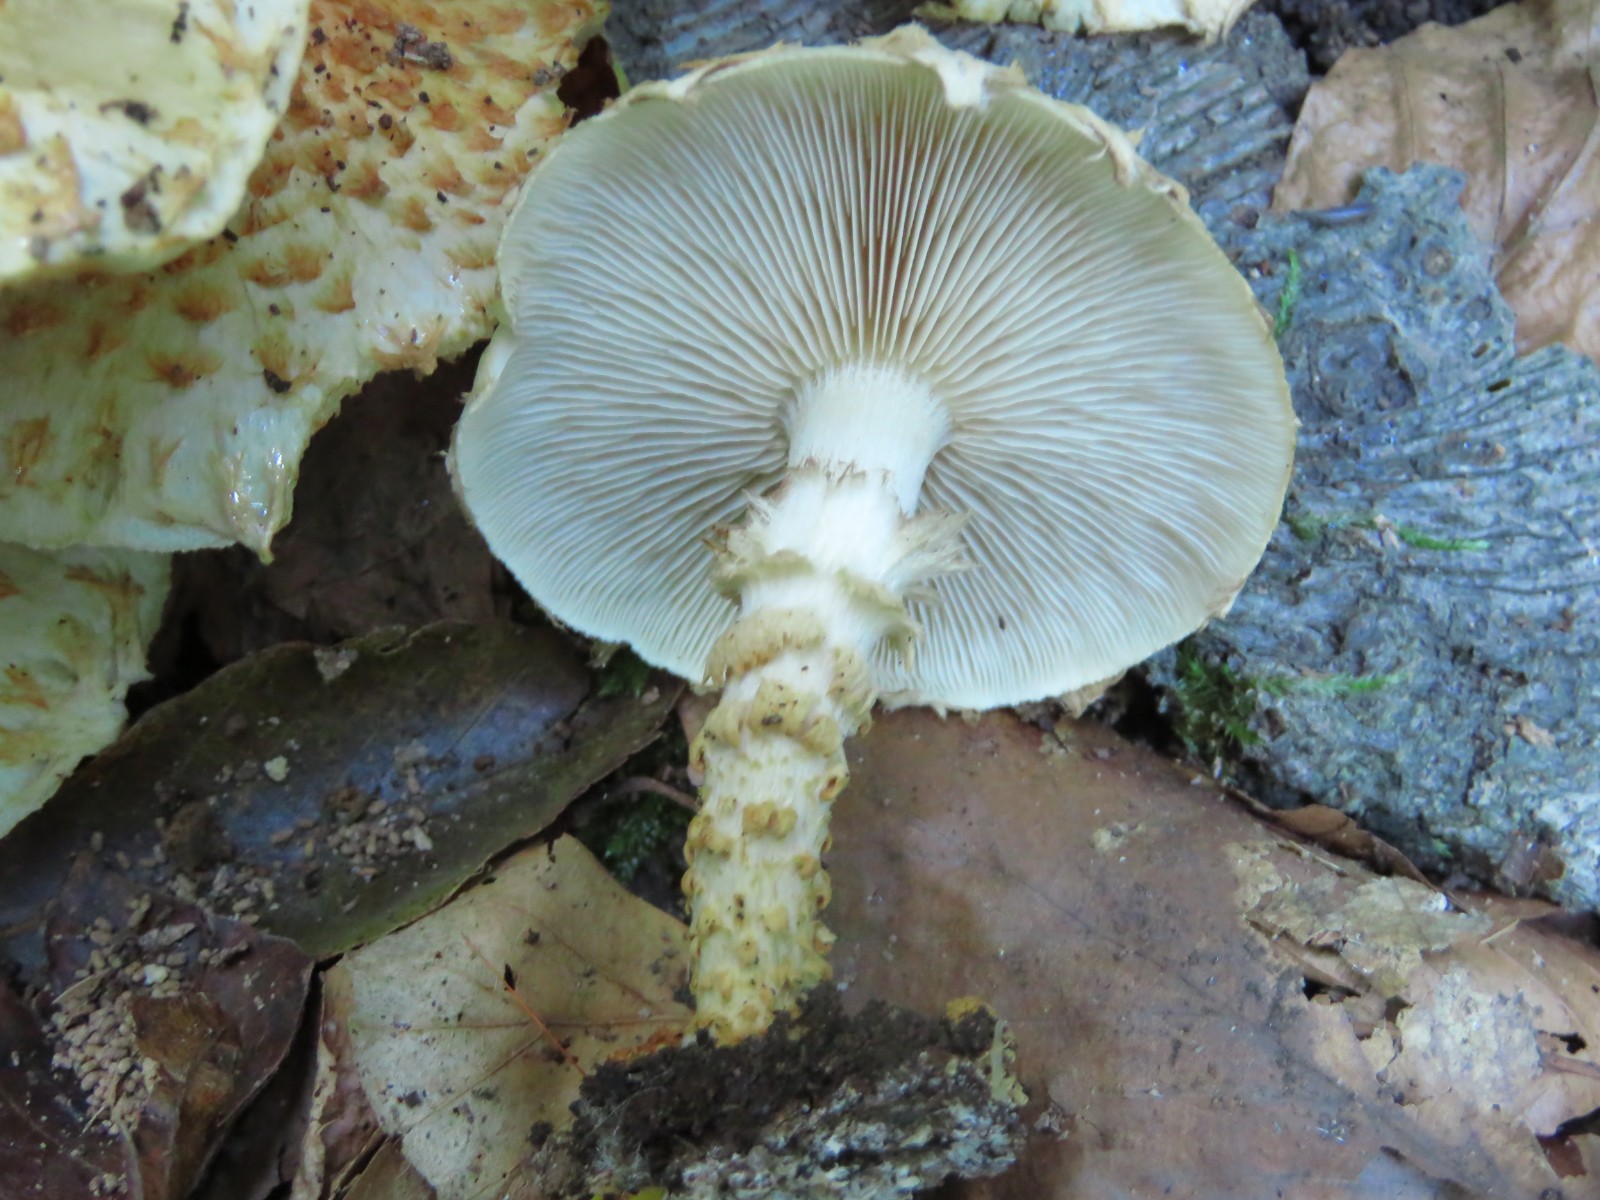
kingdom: Fungi
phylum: Basidiomycota
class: Agaricomycetes
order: Agaricales
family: Strophariaceae
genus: Pholiota
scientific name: Pholiota squarrosoides
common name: vellugtende skælhat
